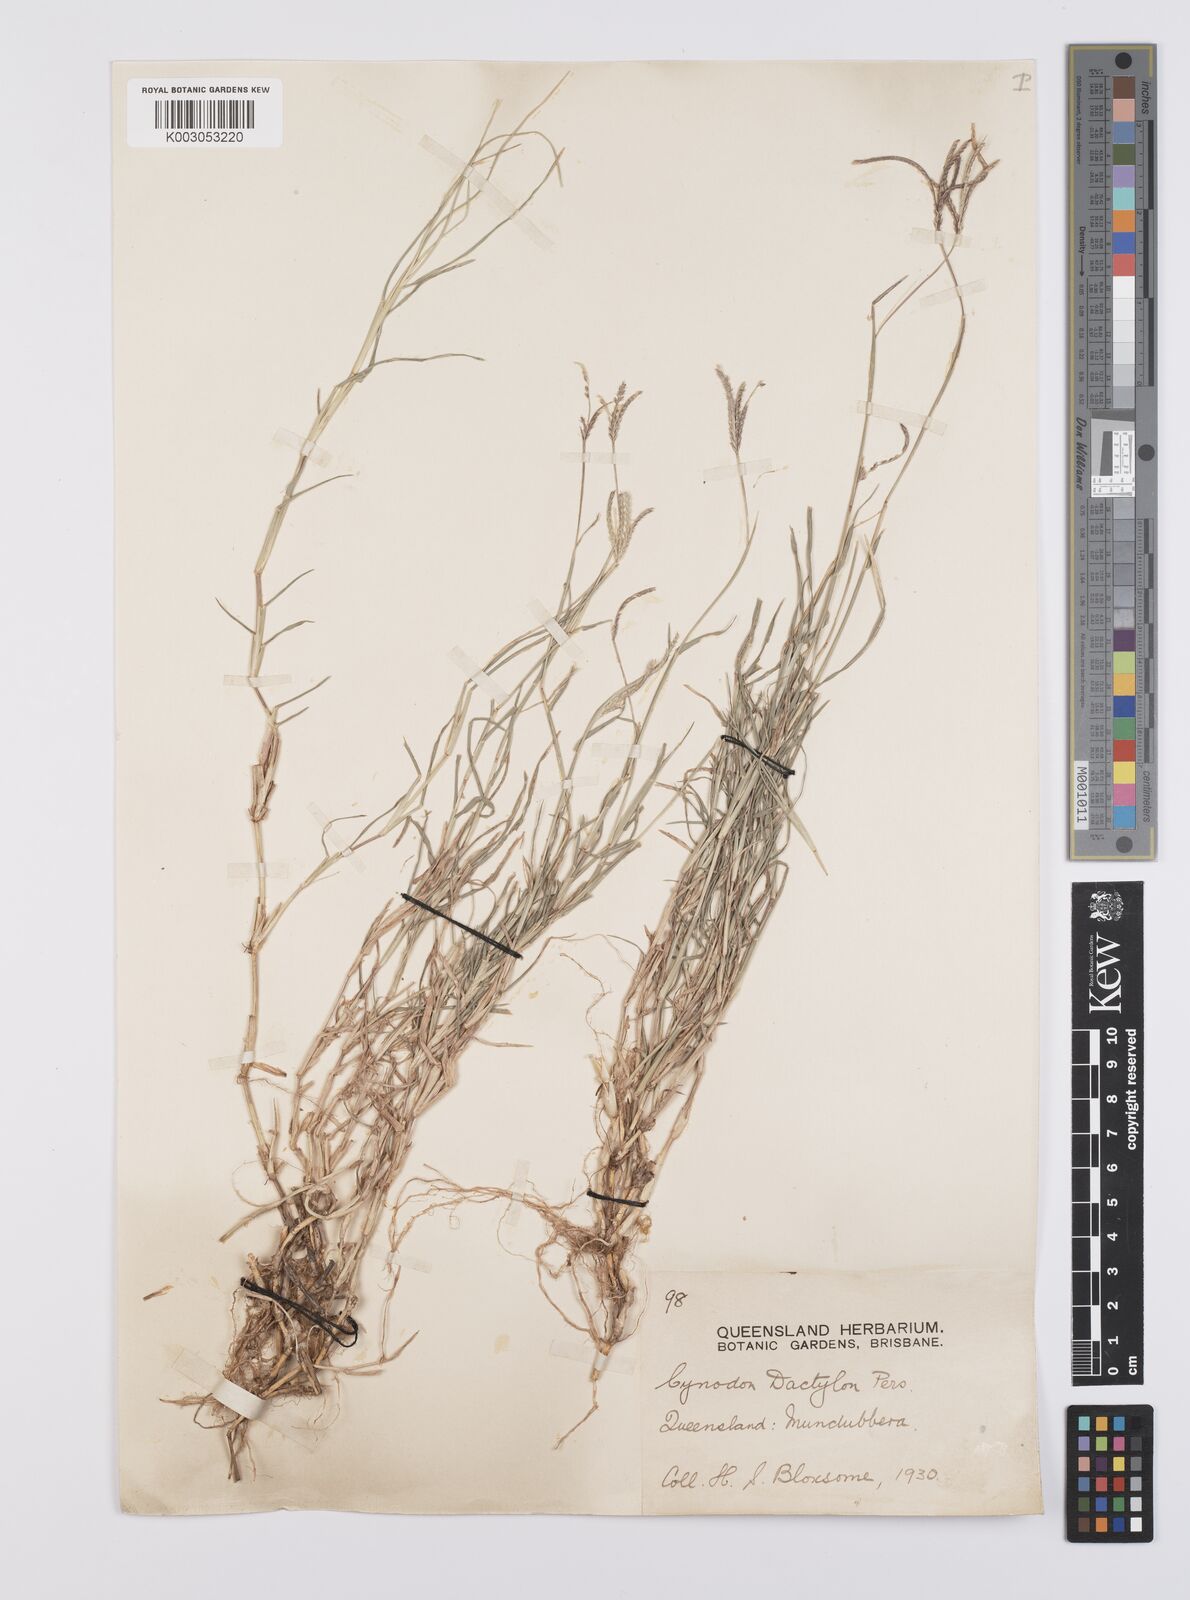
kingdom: Plantae
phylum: Tracheophyta
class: Liliopsida
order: Poales
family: Poaceae
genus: Cynodon
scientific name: Cynodon dactylon
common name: Bermuda grass
